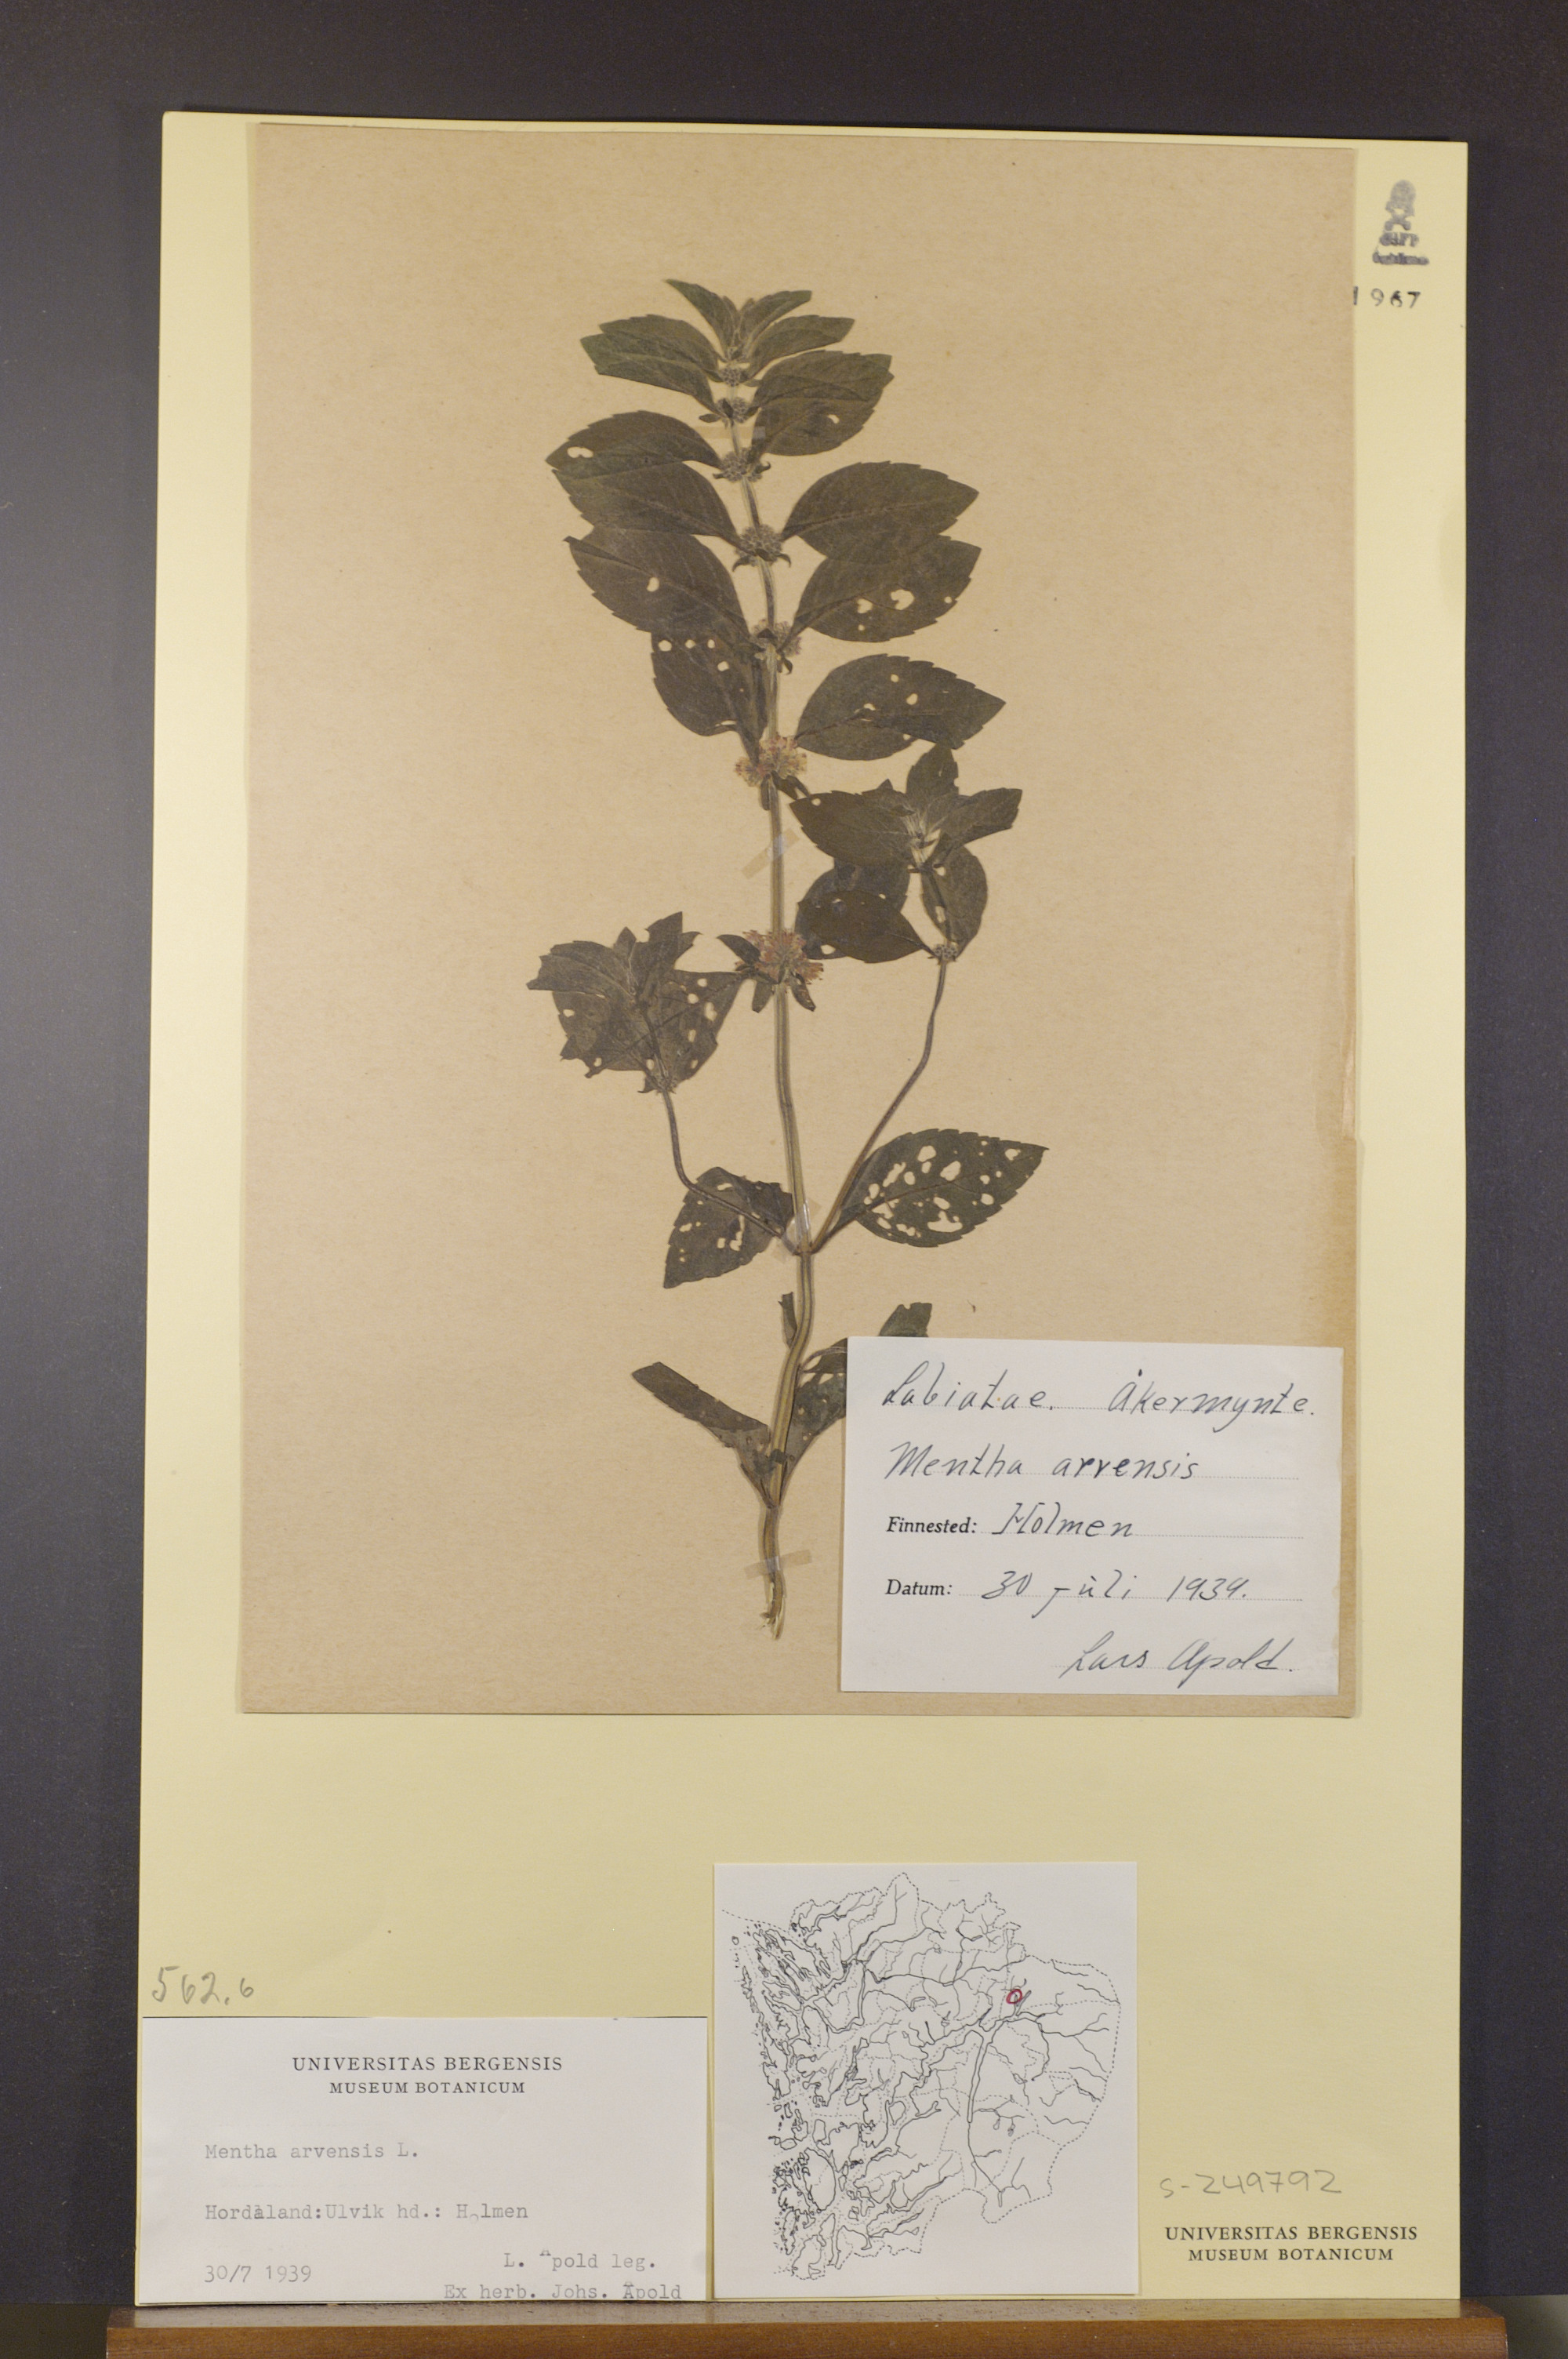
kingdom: Plantae
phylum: Tracheophyta
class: Magnoliopsida
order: Lamiales
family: Lamiaceae
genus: Mentha
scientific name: Mentha arvensis
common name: Corn mint
